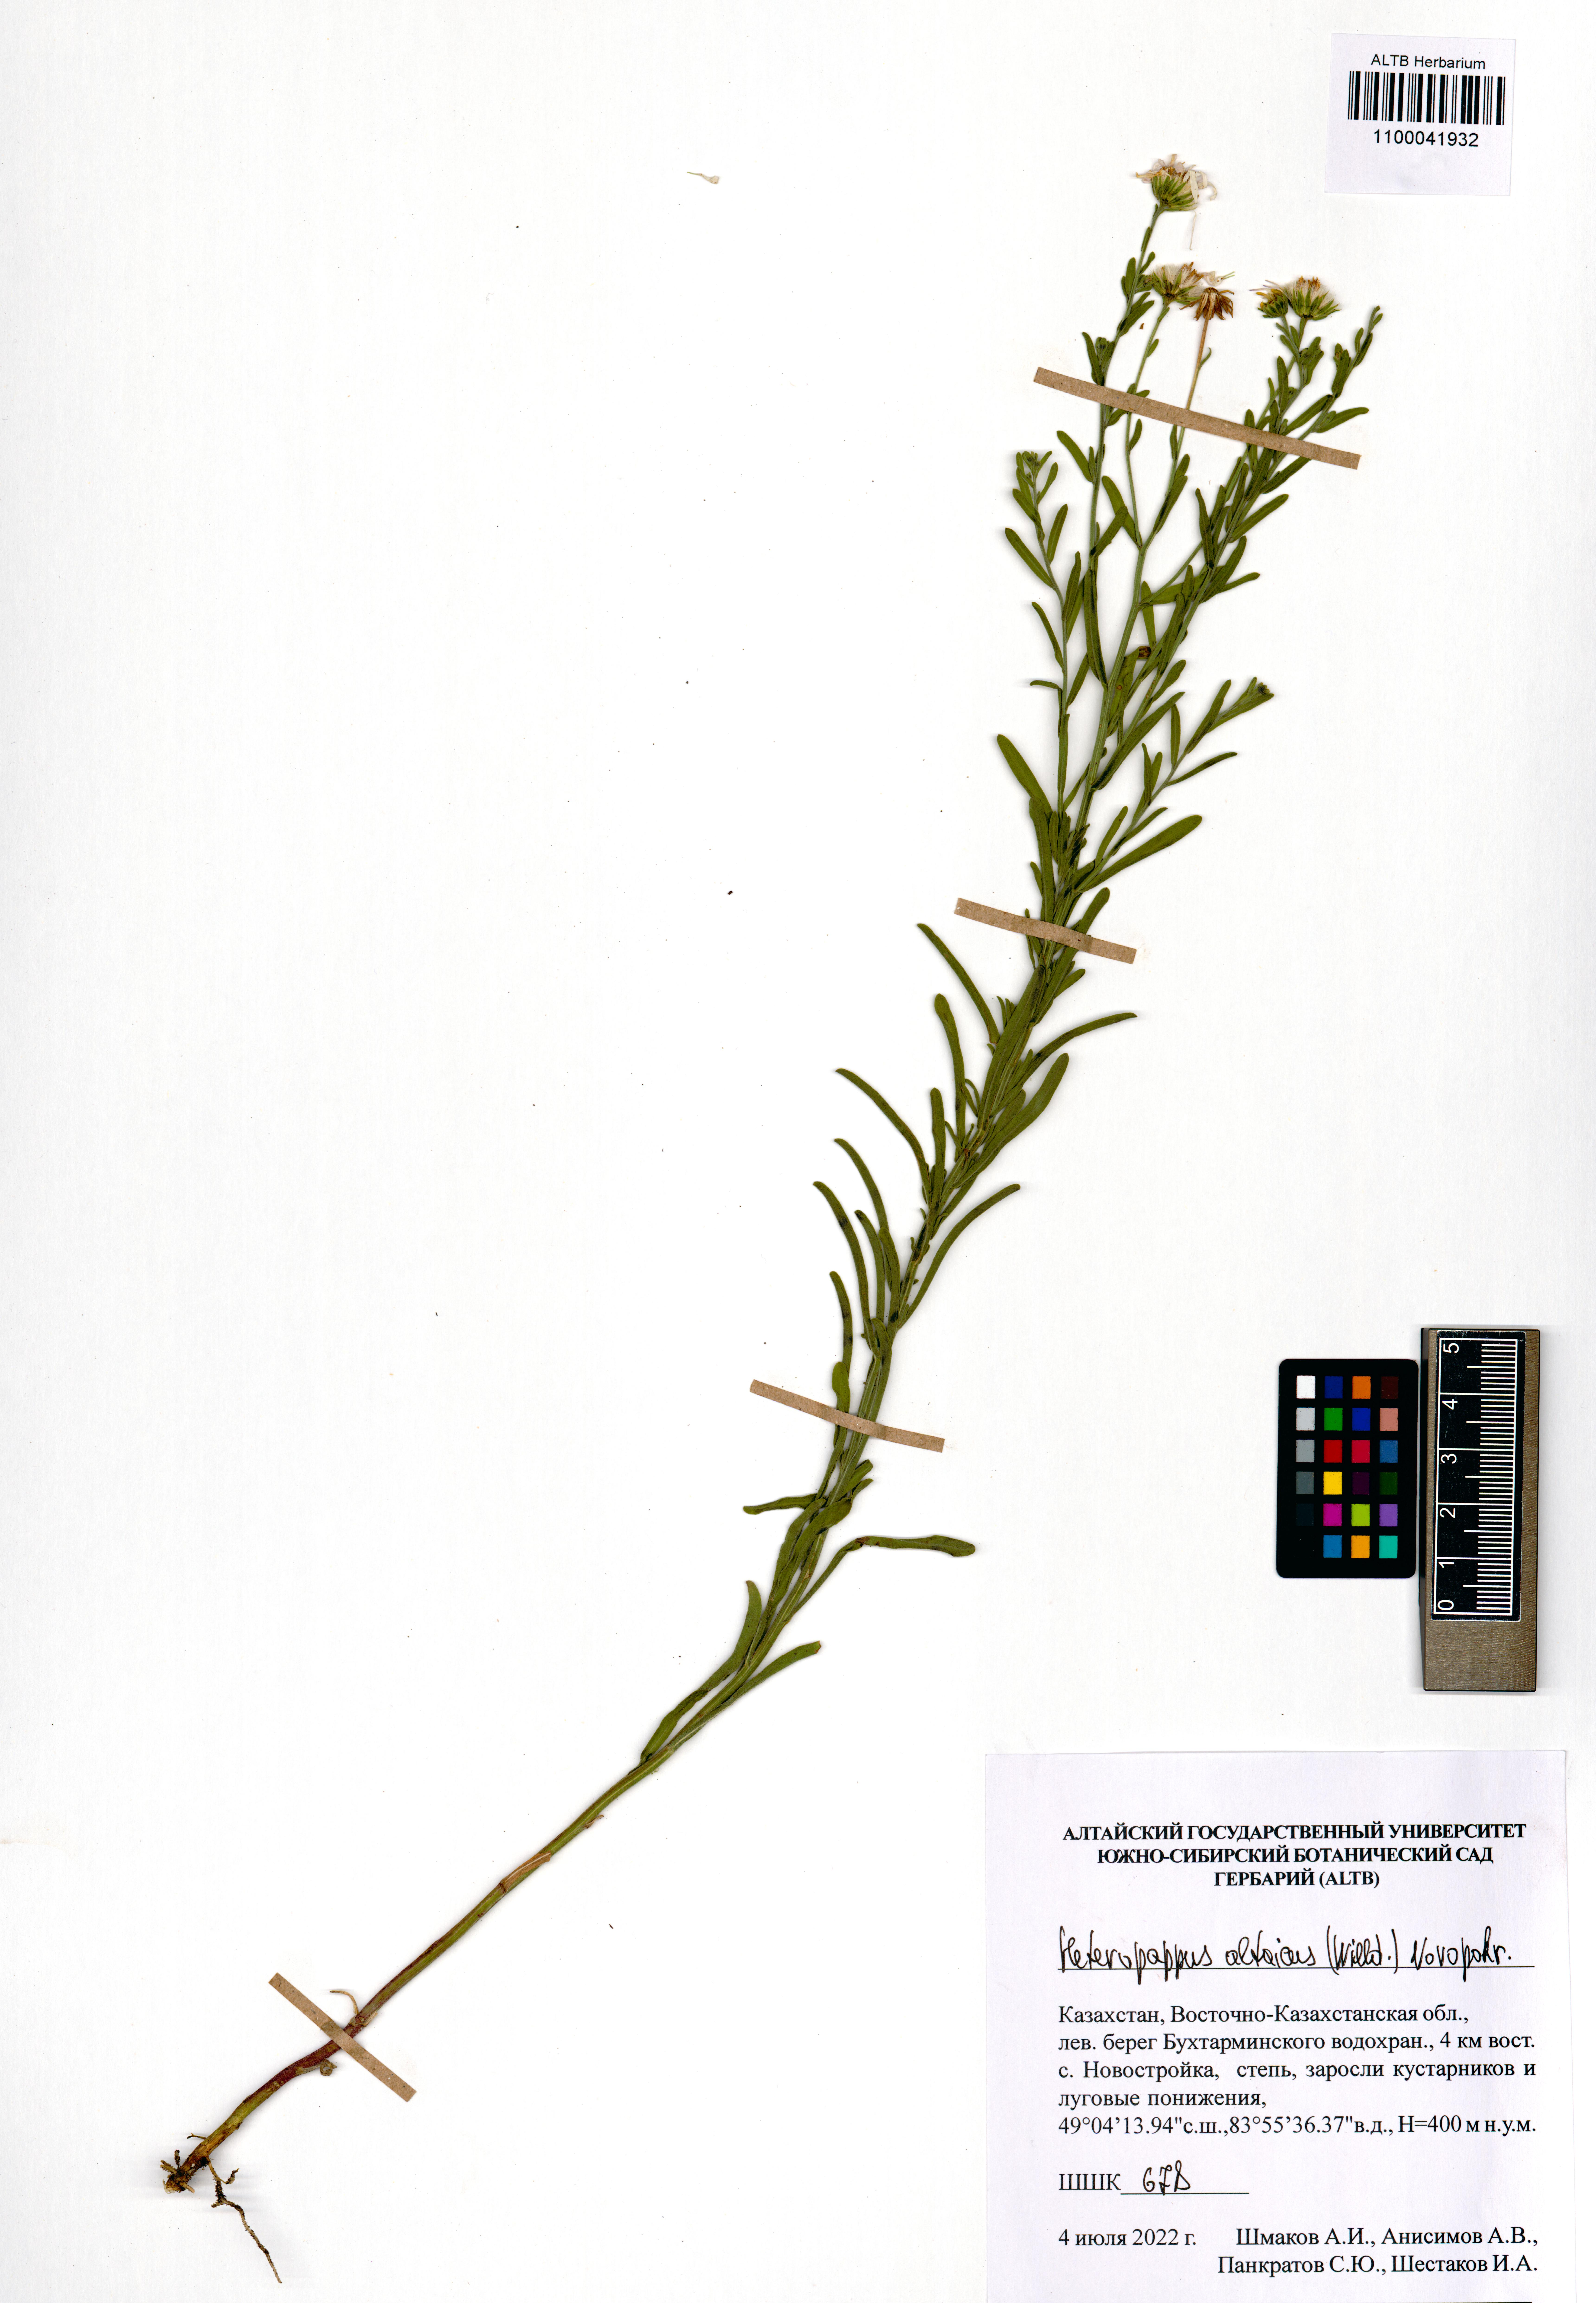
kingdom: Plantae
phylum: Tracheophyta
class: Magnoliopsida
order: Asterales
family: Asteraceae
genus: Heteropappus
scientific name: Heteropappus altaicus
